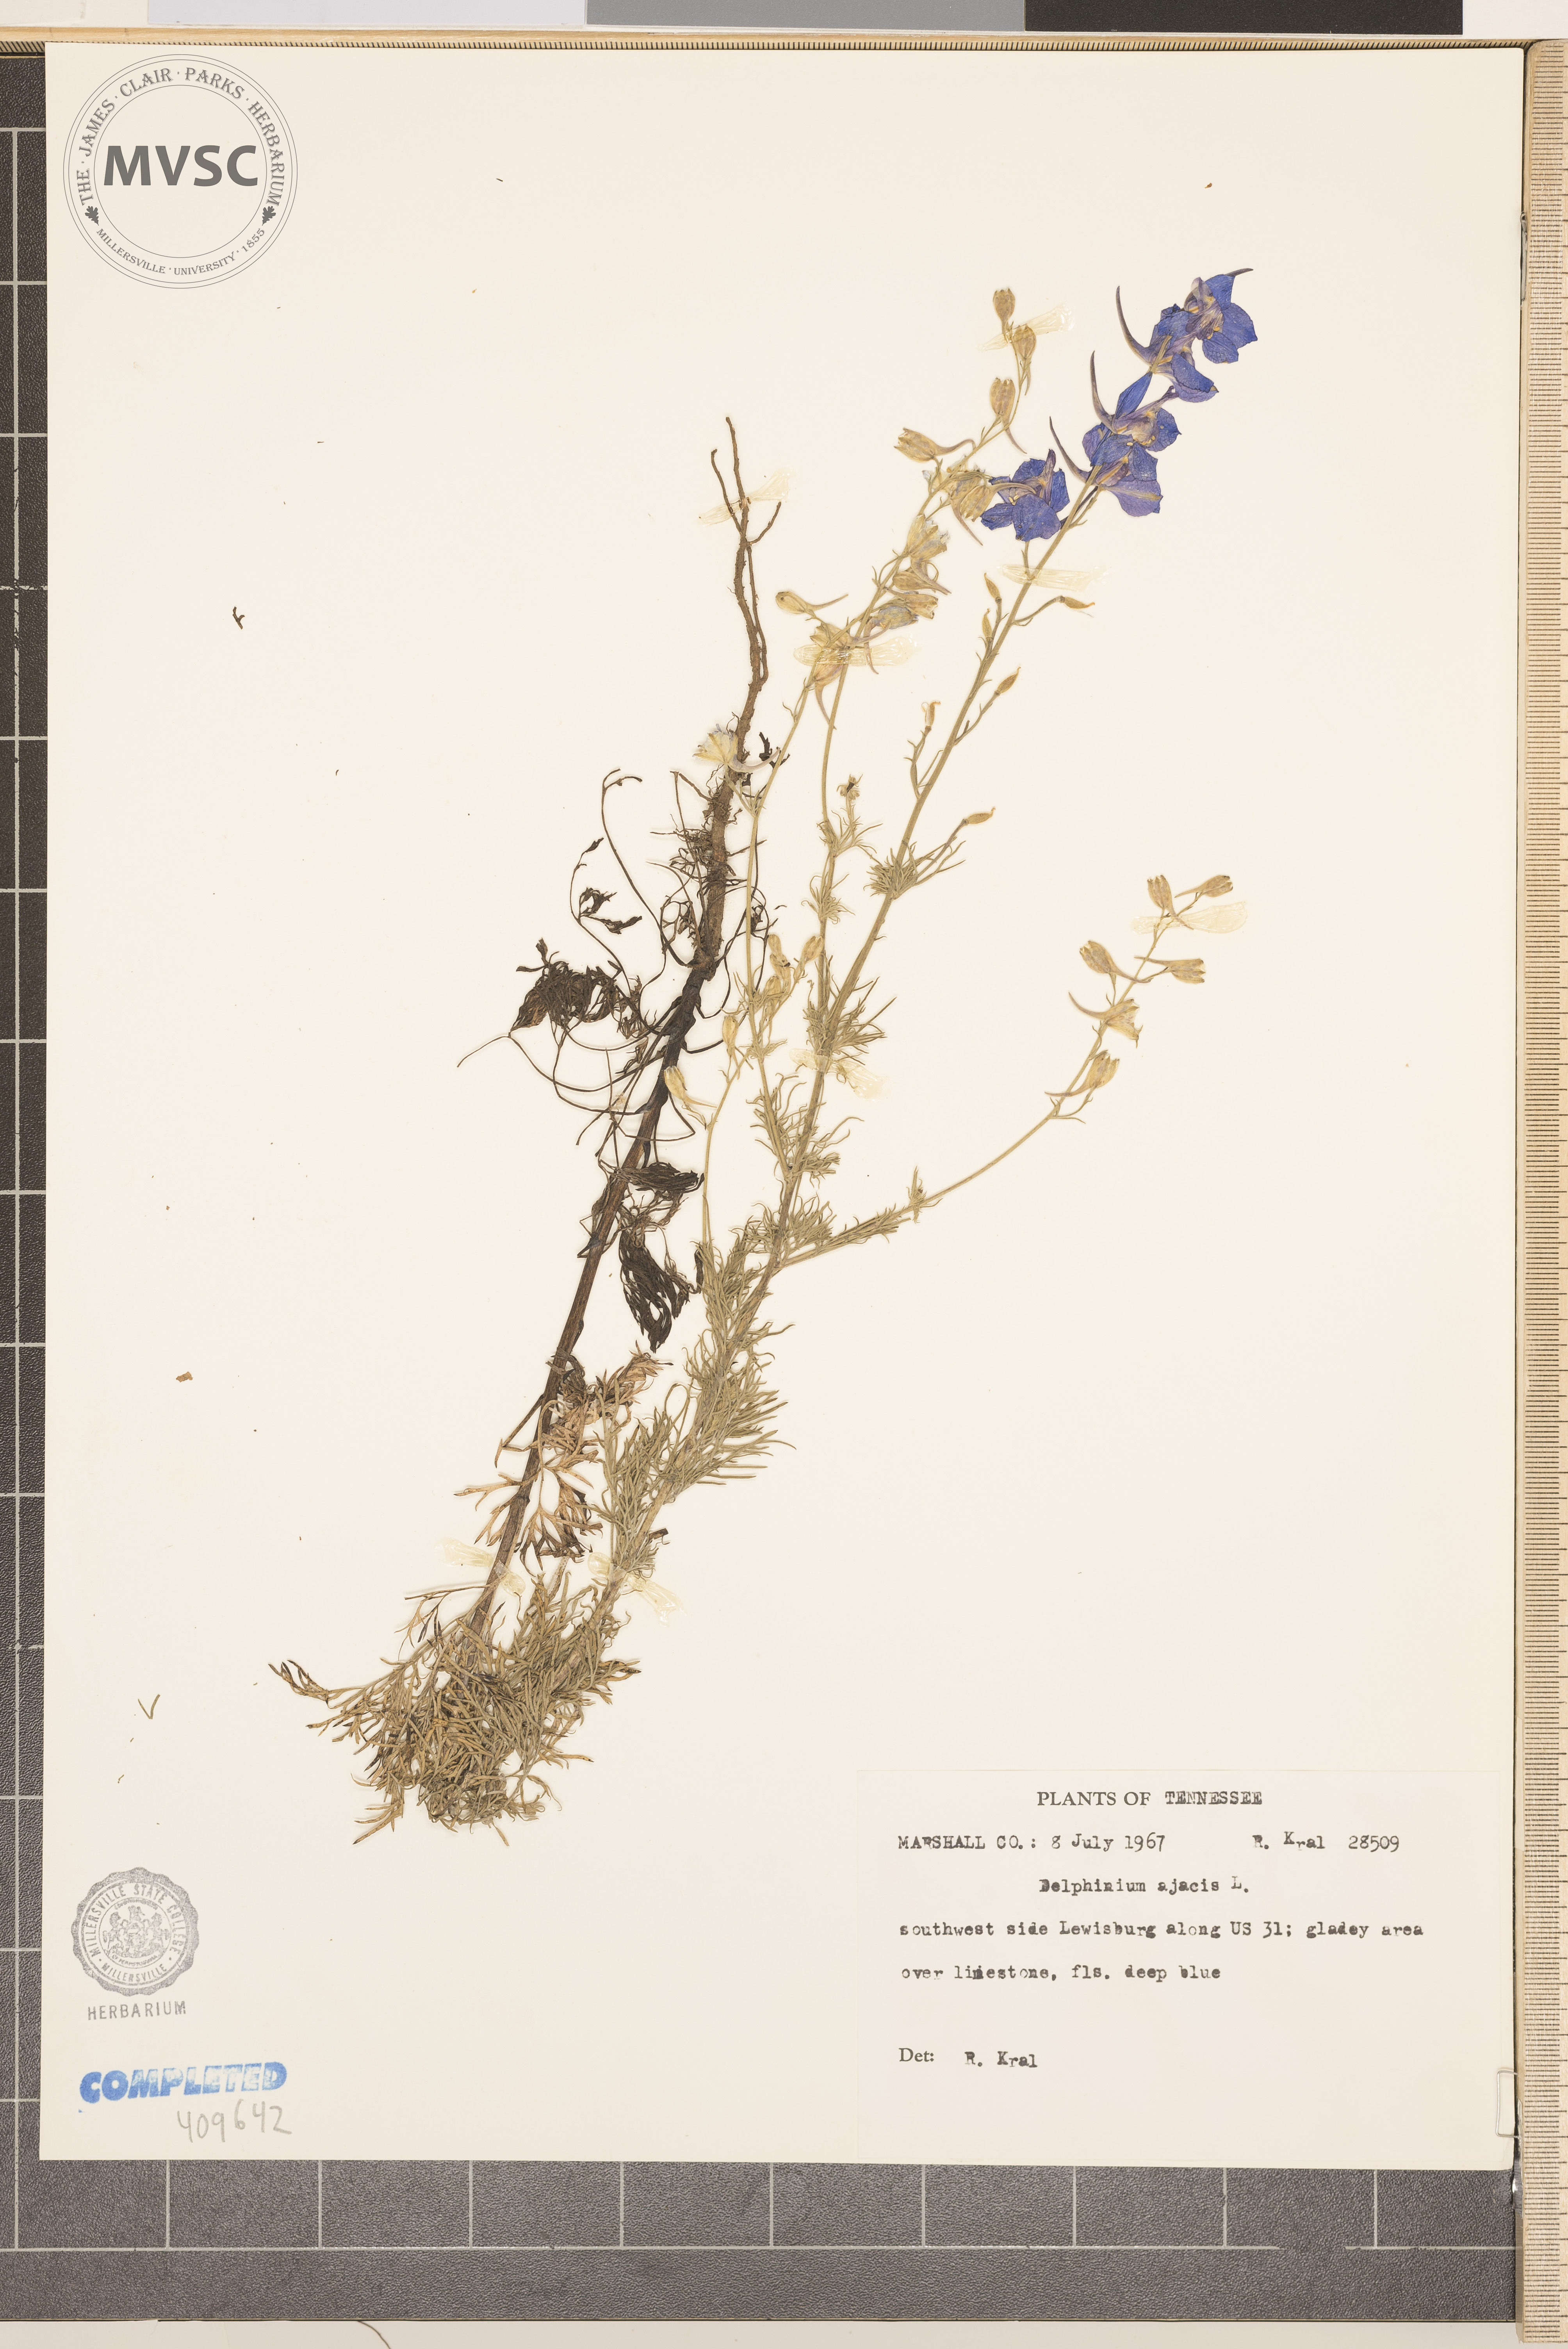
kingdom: Plantae
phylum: Tracheophyta
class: Magnoliopsida
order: Ranunculales
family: Ranunculaceae
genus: Delphinium
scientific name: Delphinium ajacis
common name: Doubtful knight's-spur
